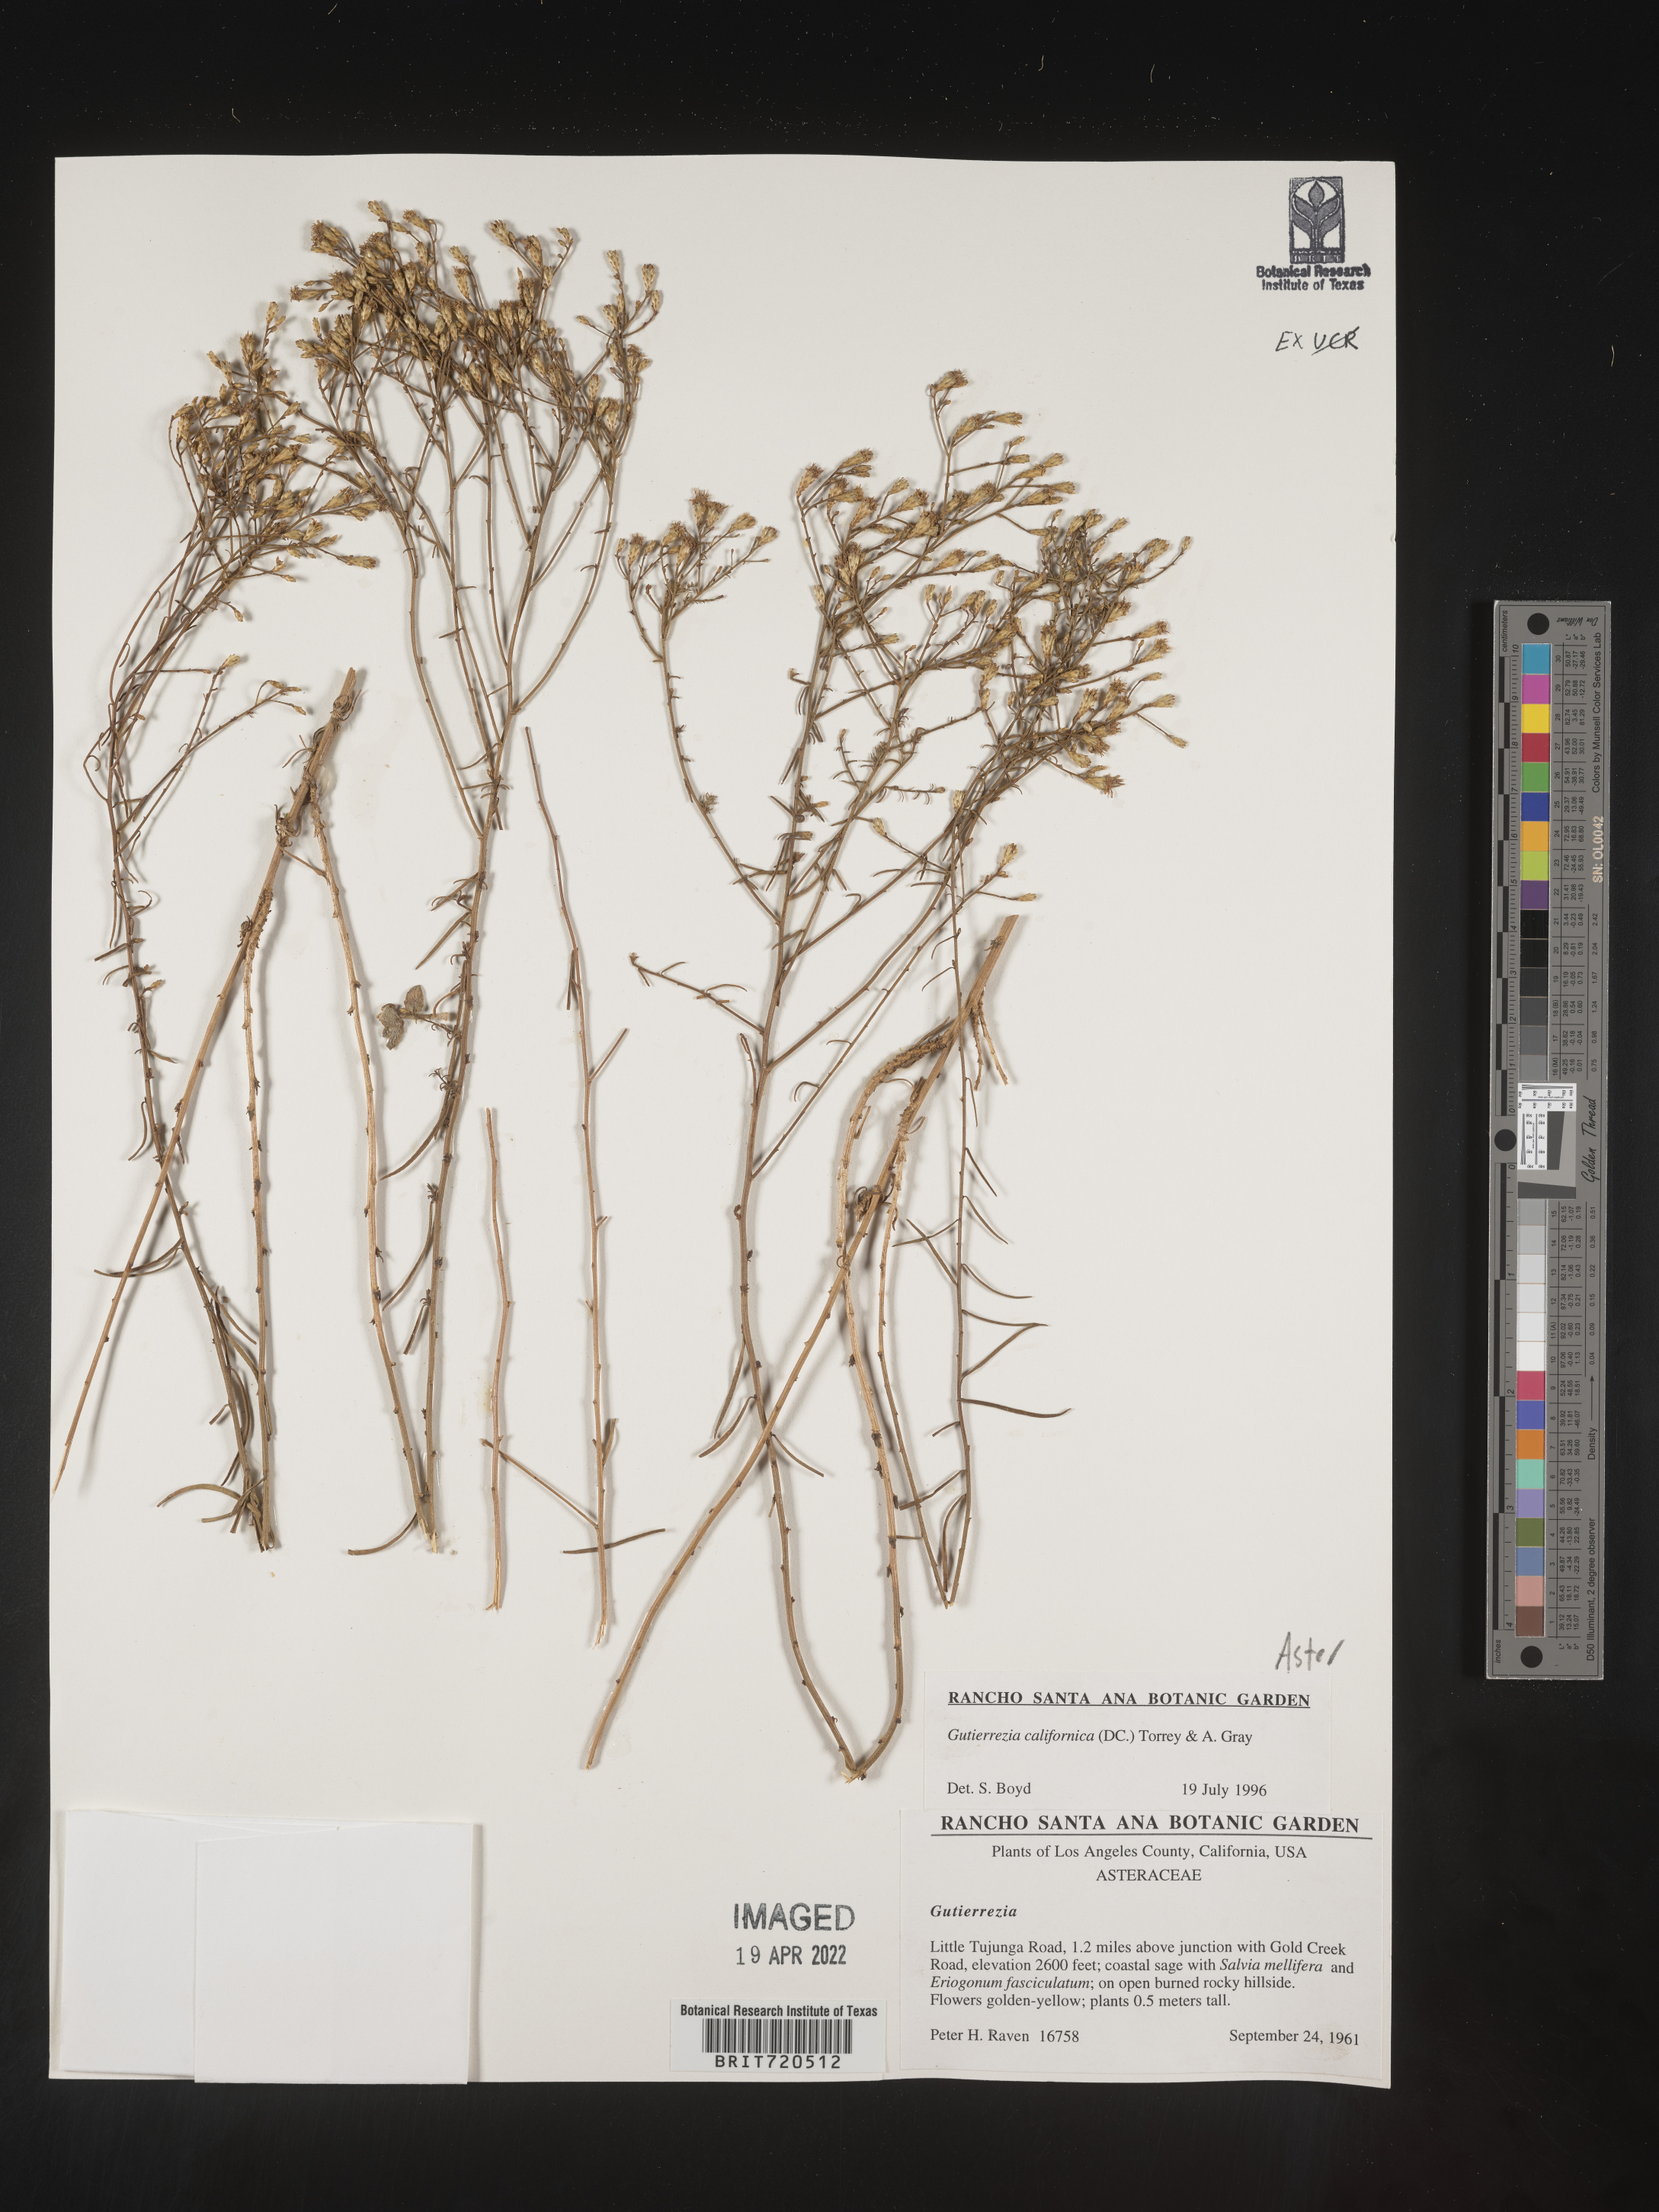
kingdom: Plantae
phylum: Tracheophyta
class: Magnoliopsida
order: Asterales
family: Asteraceae
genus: Gutierrezia
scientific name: Gutierrezia
